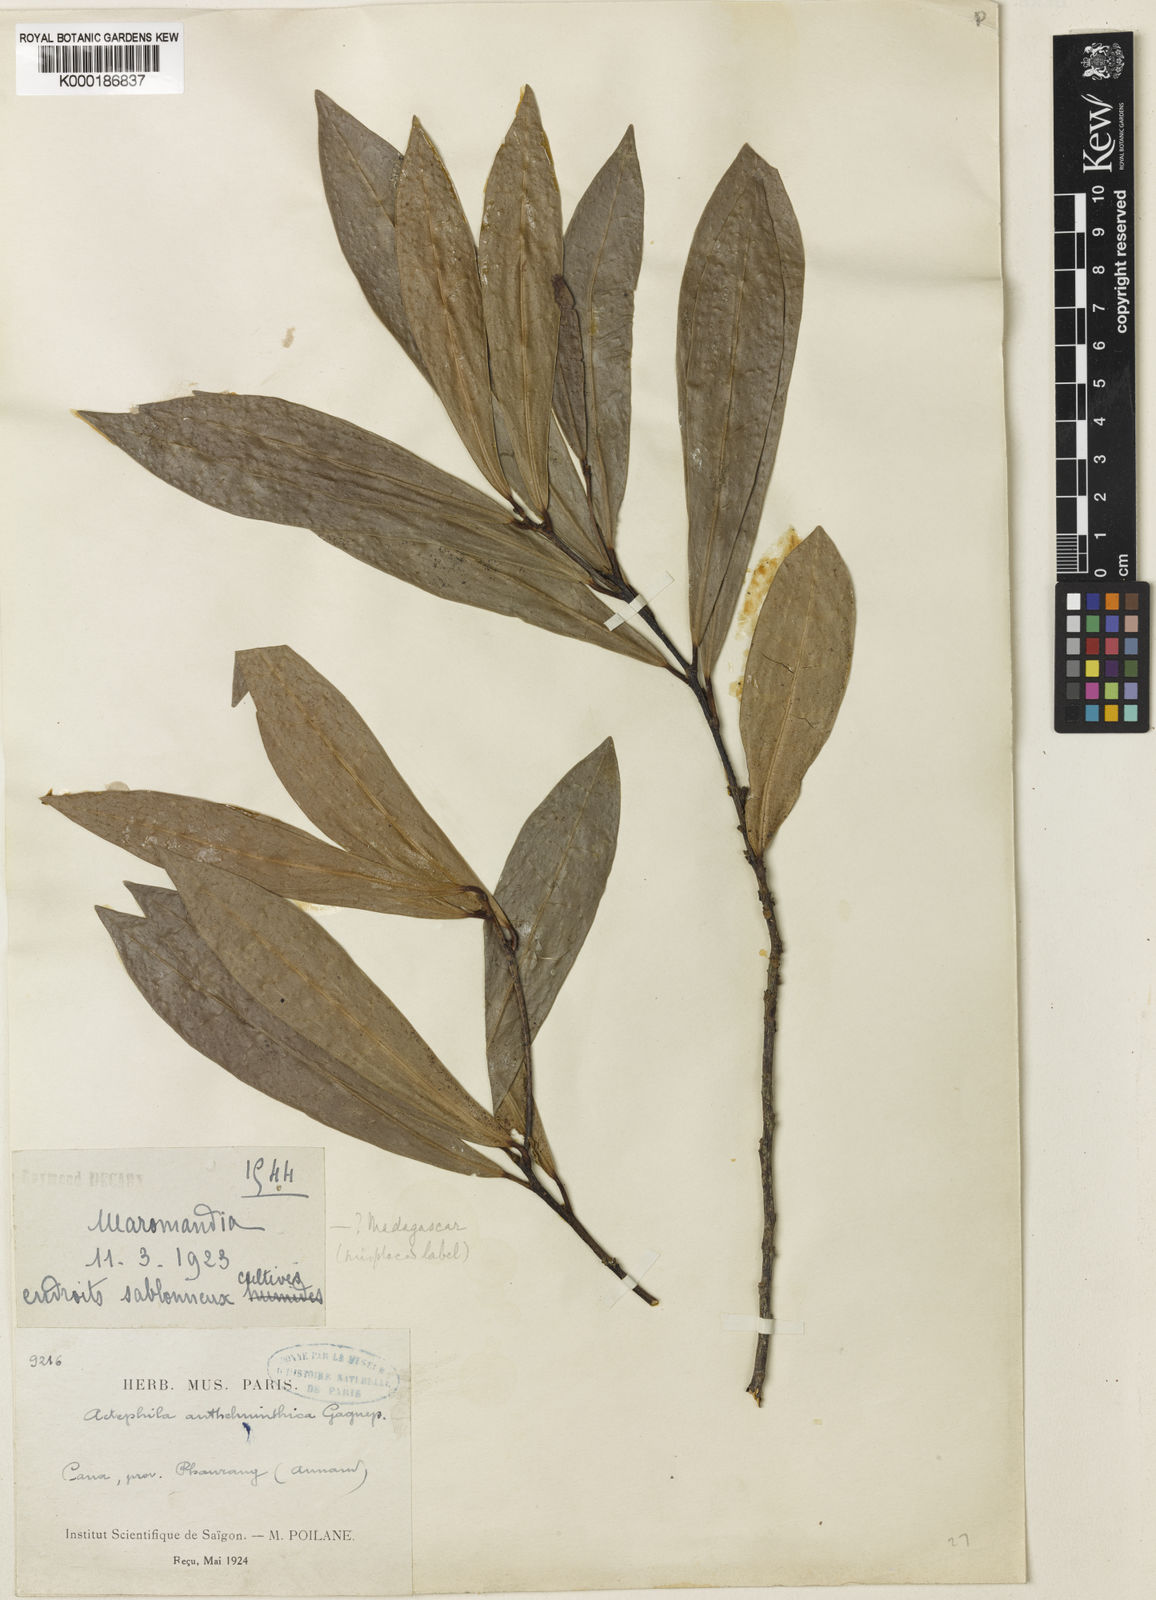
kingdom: Plantae
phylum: Tracheophyta
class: Magnoliopsida
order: Malpighiales
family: Phyllanthaceae
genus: Actephila
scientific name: Actephila anthelminthica
